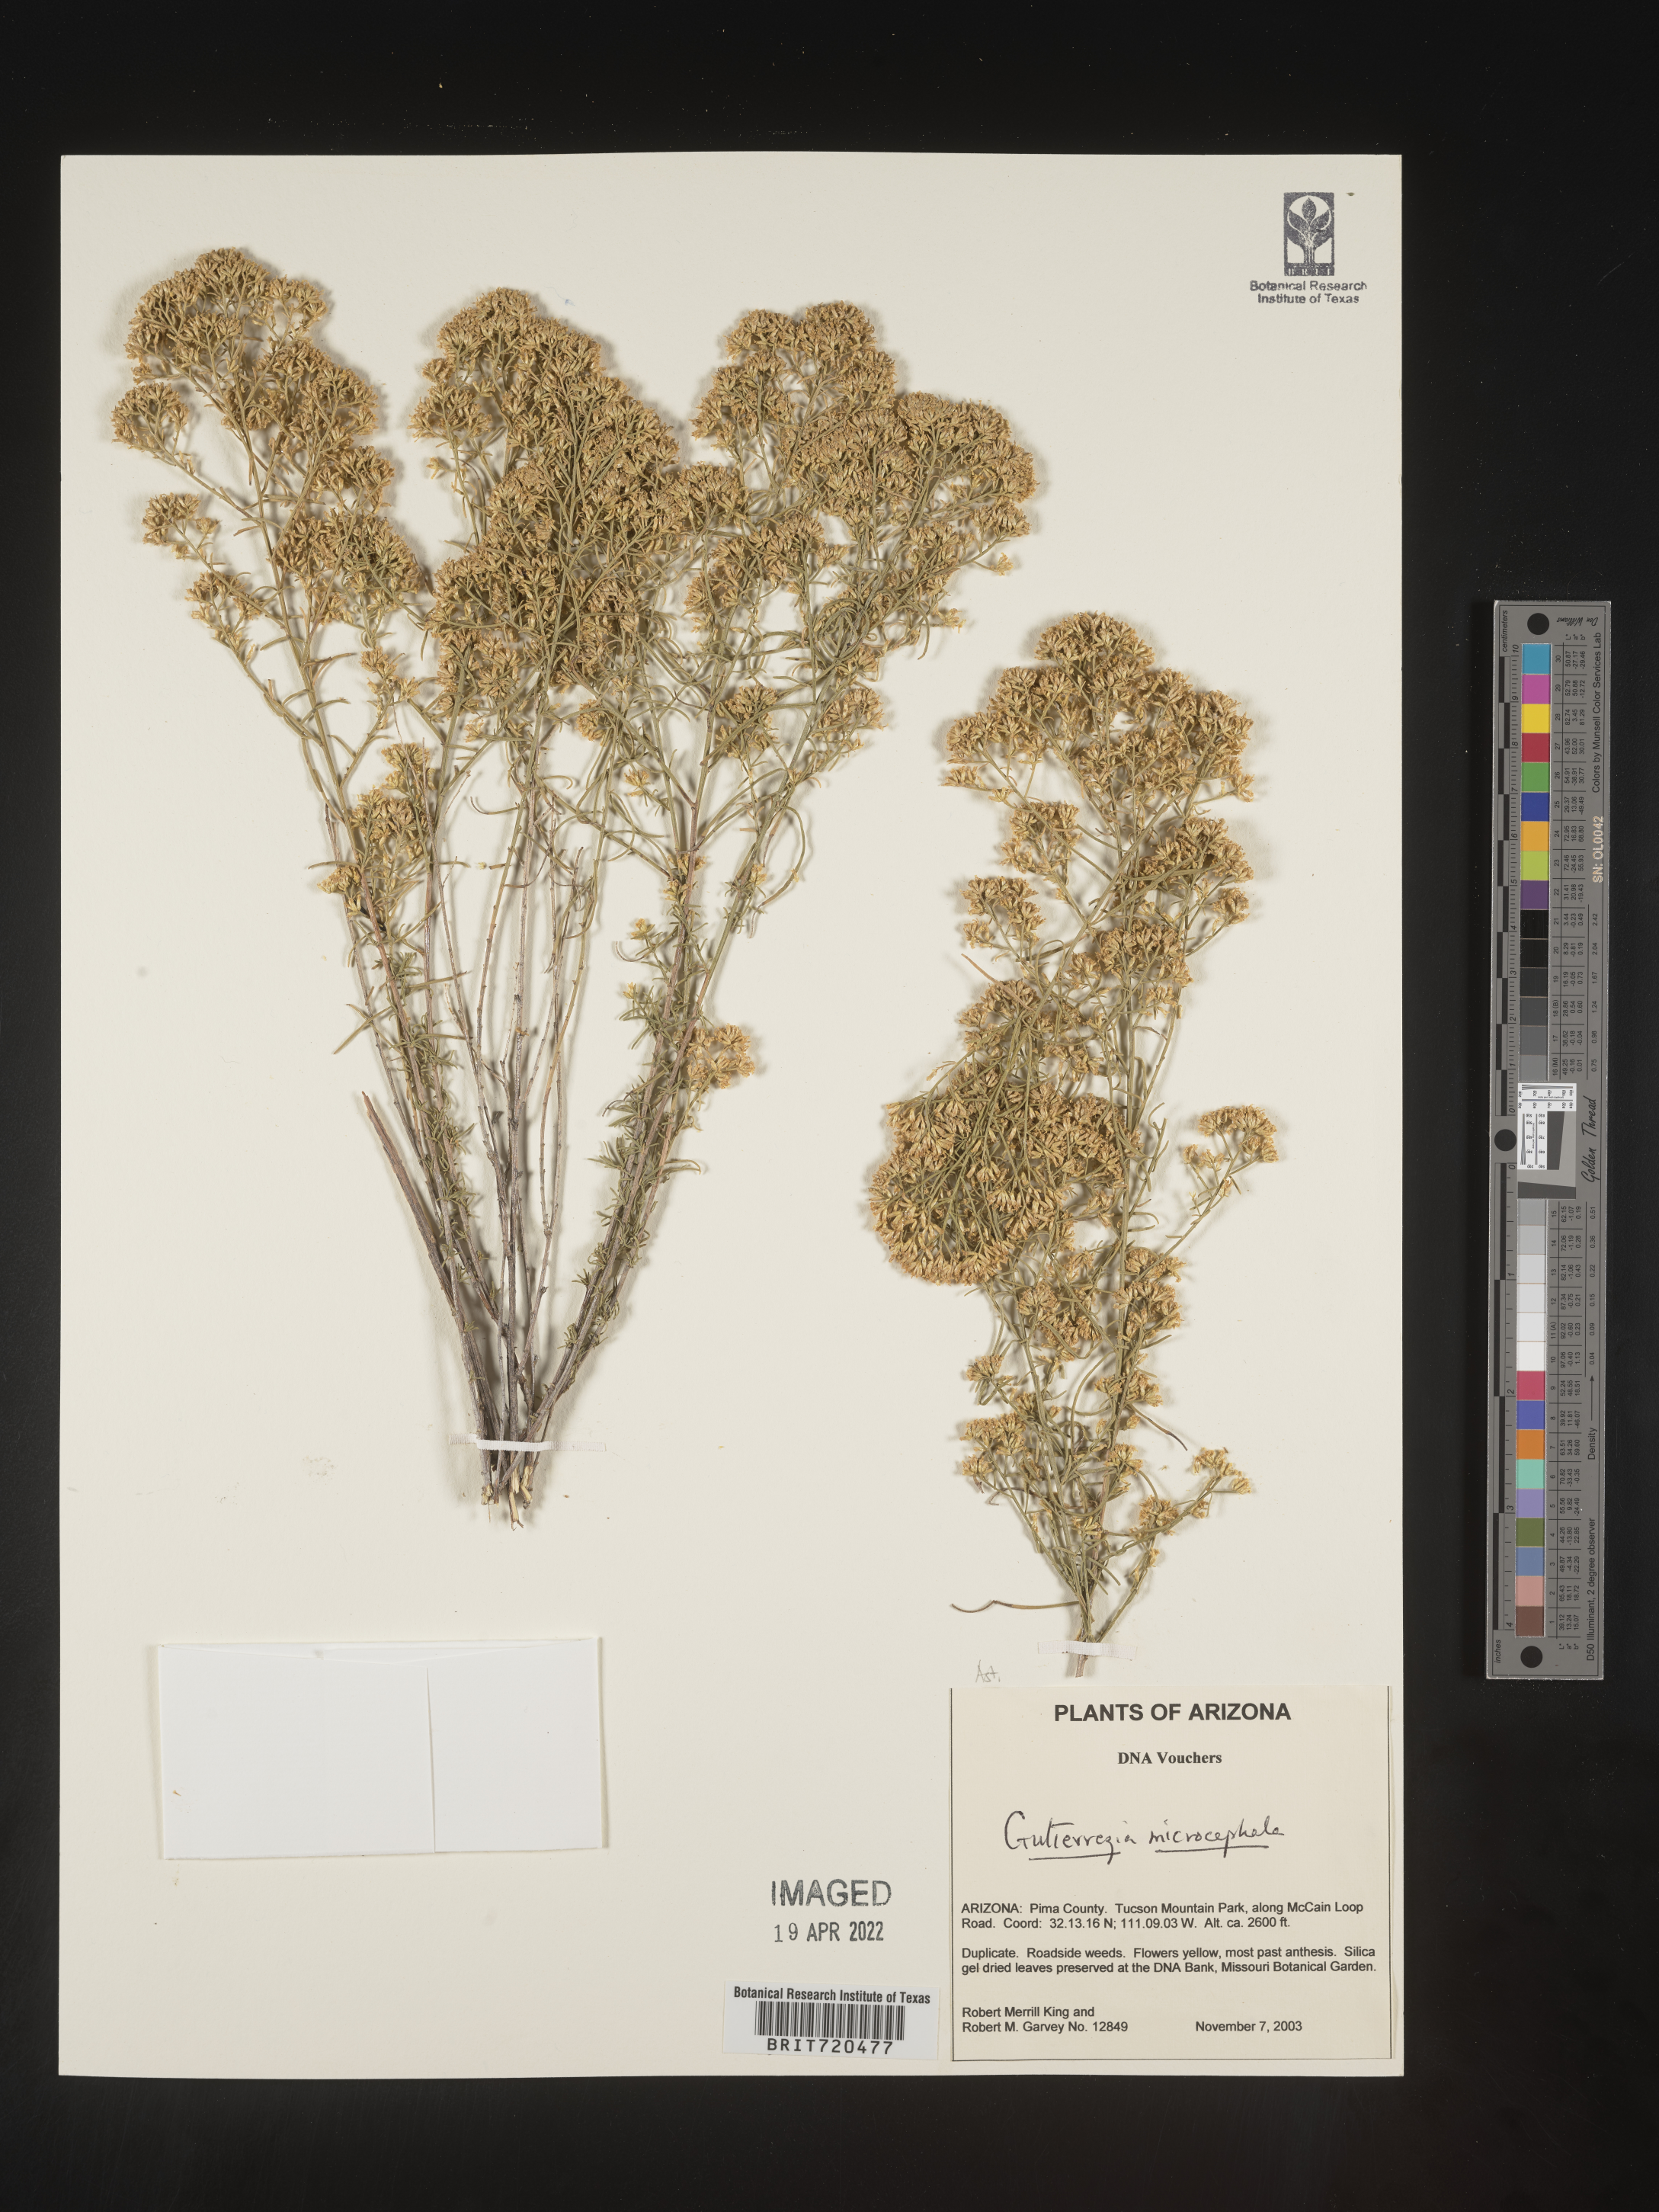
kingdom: Plantae
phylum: Tracheophyta
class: Magnoliopsida
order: Asterales
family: Asteraceae
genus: Gutierrezia
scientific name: Gutierrezia microcephala
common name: Thread snakeweed
